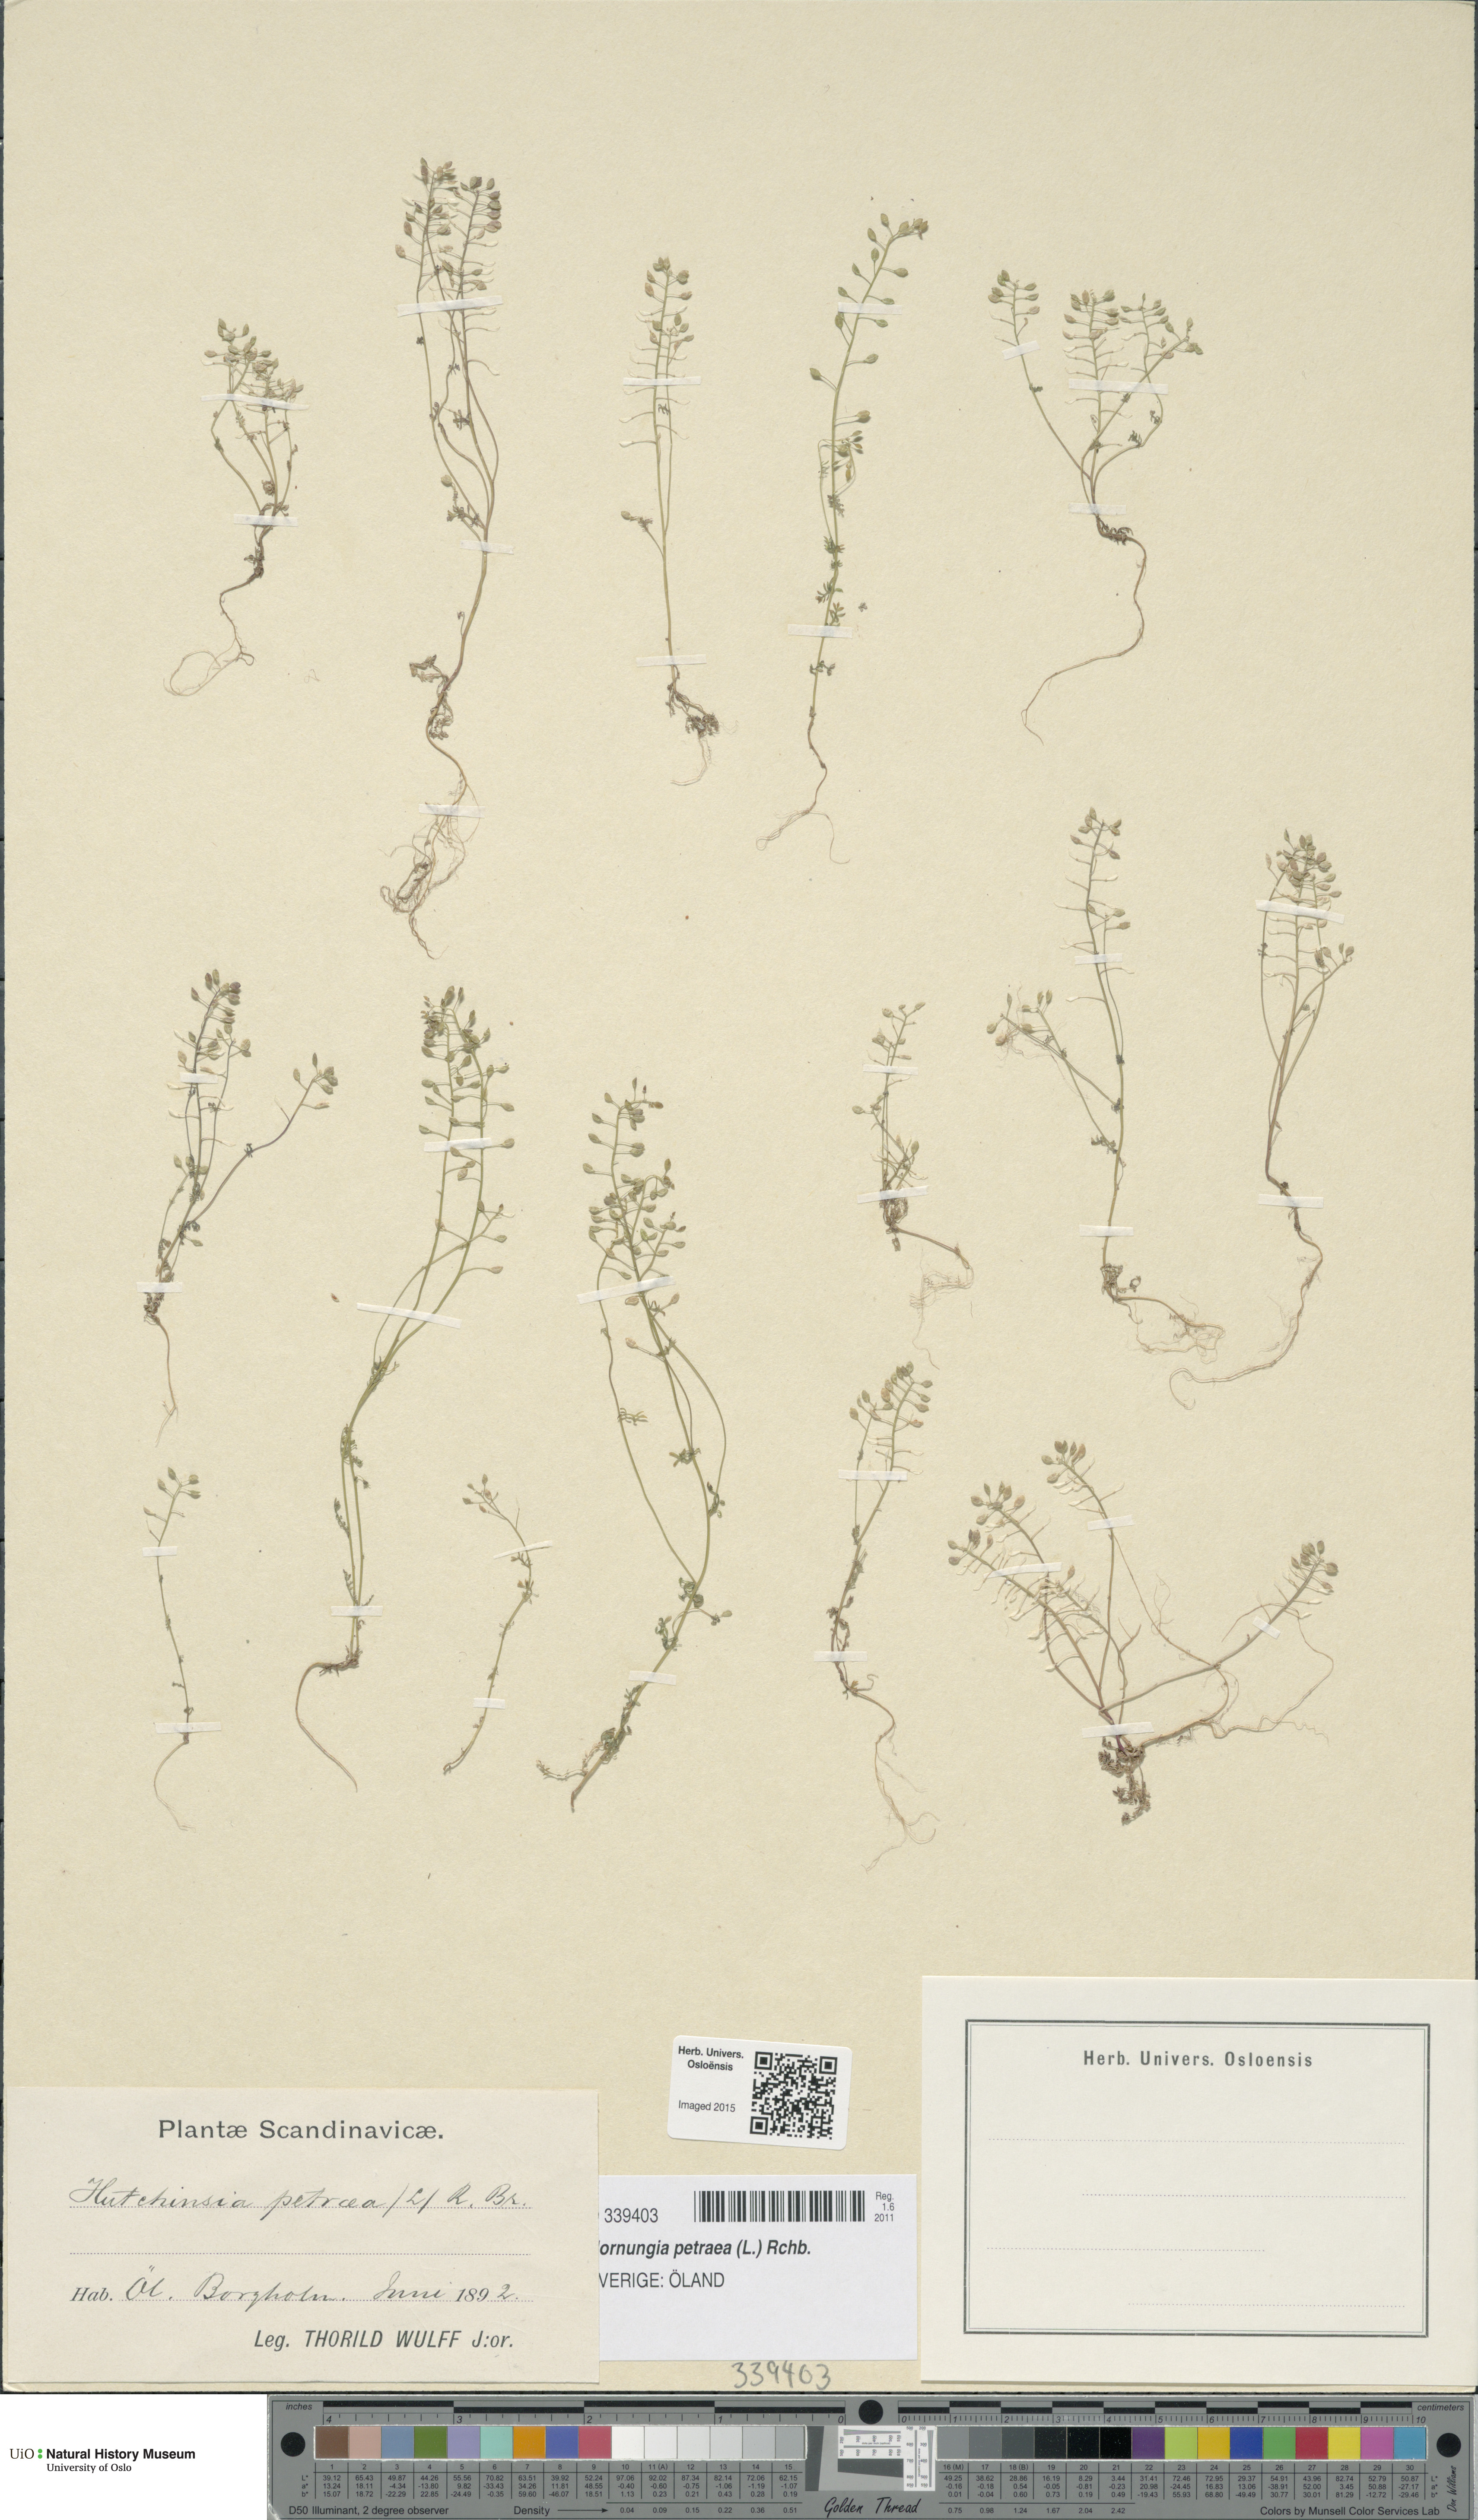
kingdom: Plantae
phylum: Tracheophyta
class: Magnoliopsida
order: Brassicales
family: Brassicaceae
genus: Hornungia
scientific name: Hornungia petraea
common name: Hutchinsia
